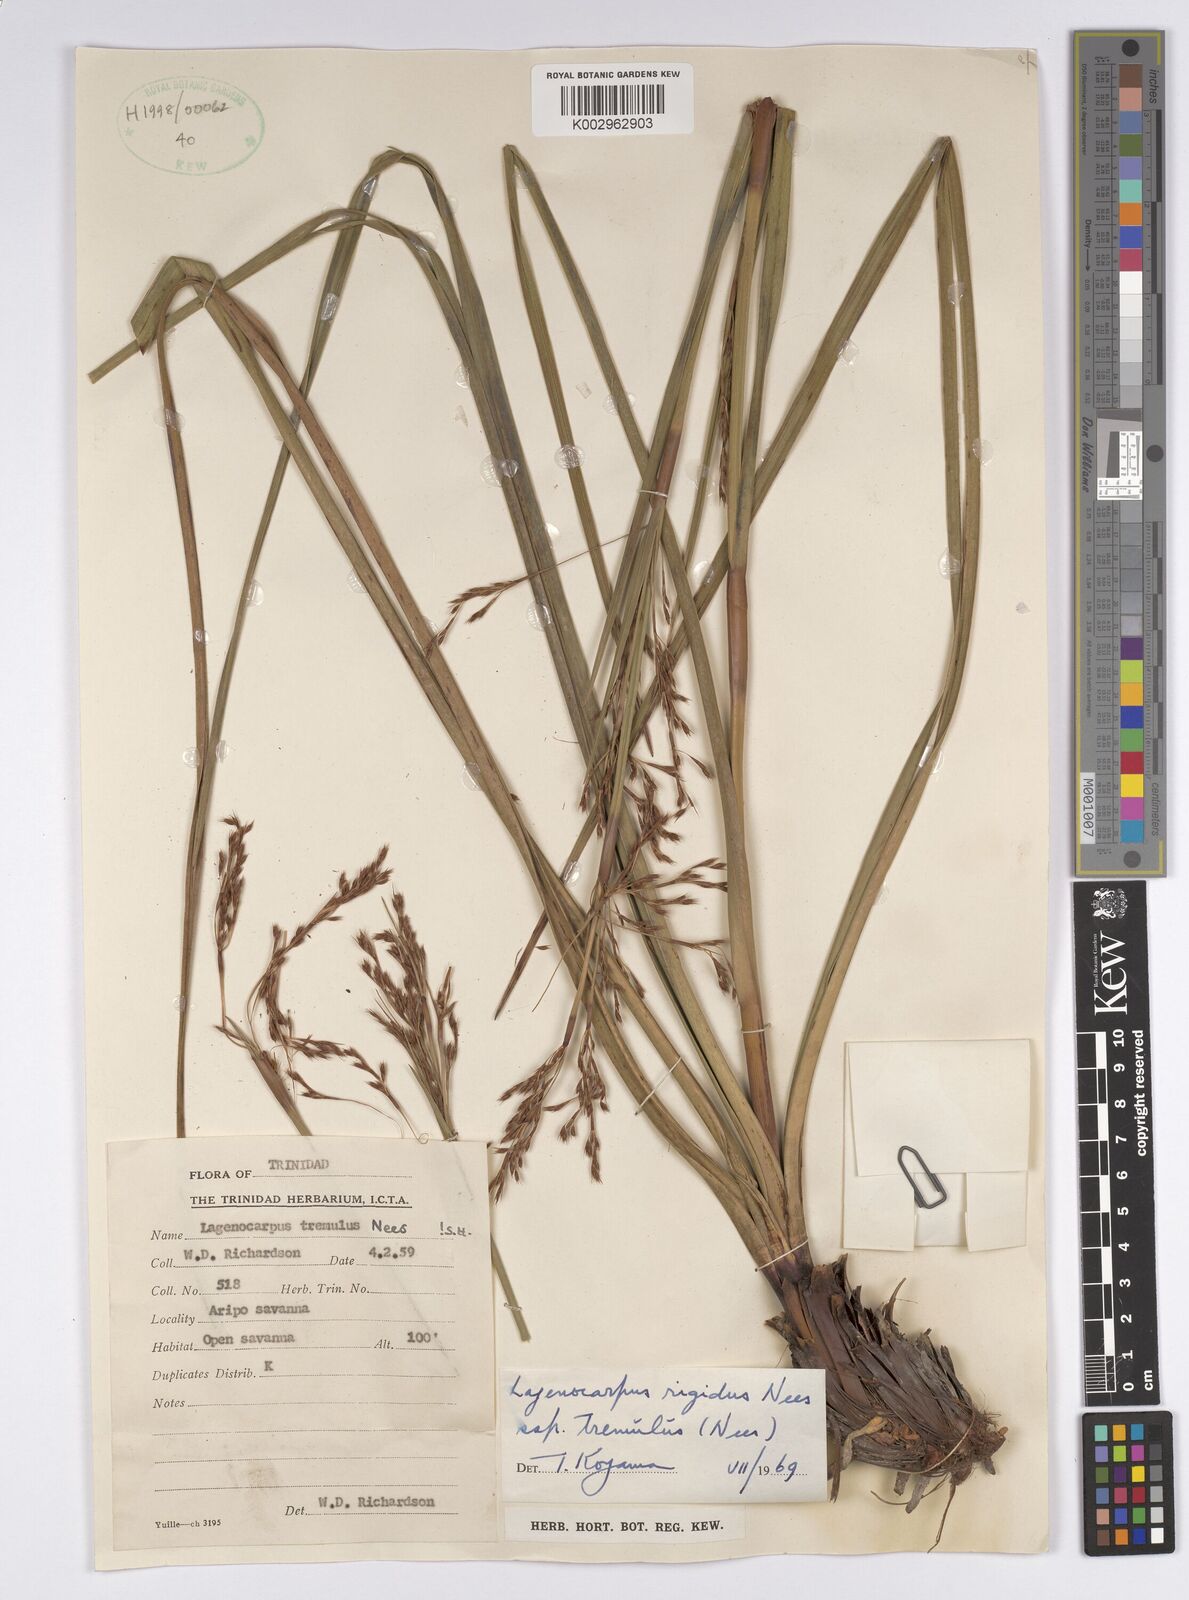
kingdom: Plantae
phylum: Tracheophyta
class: Liliopsida
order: Poales
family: Cyperaceae
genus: Lagenocarpus
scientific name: Lagenocarpus rigidus
